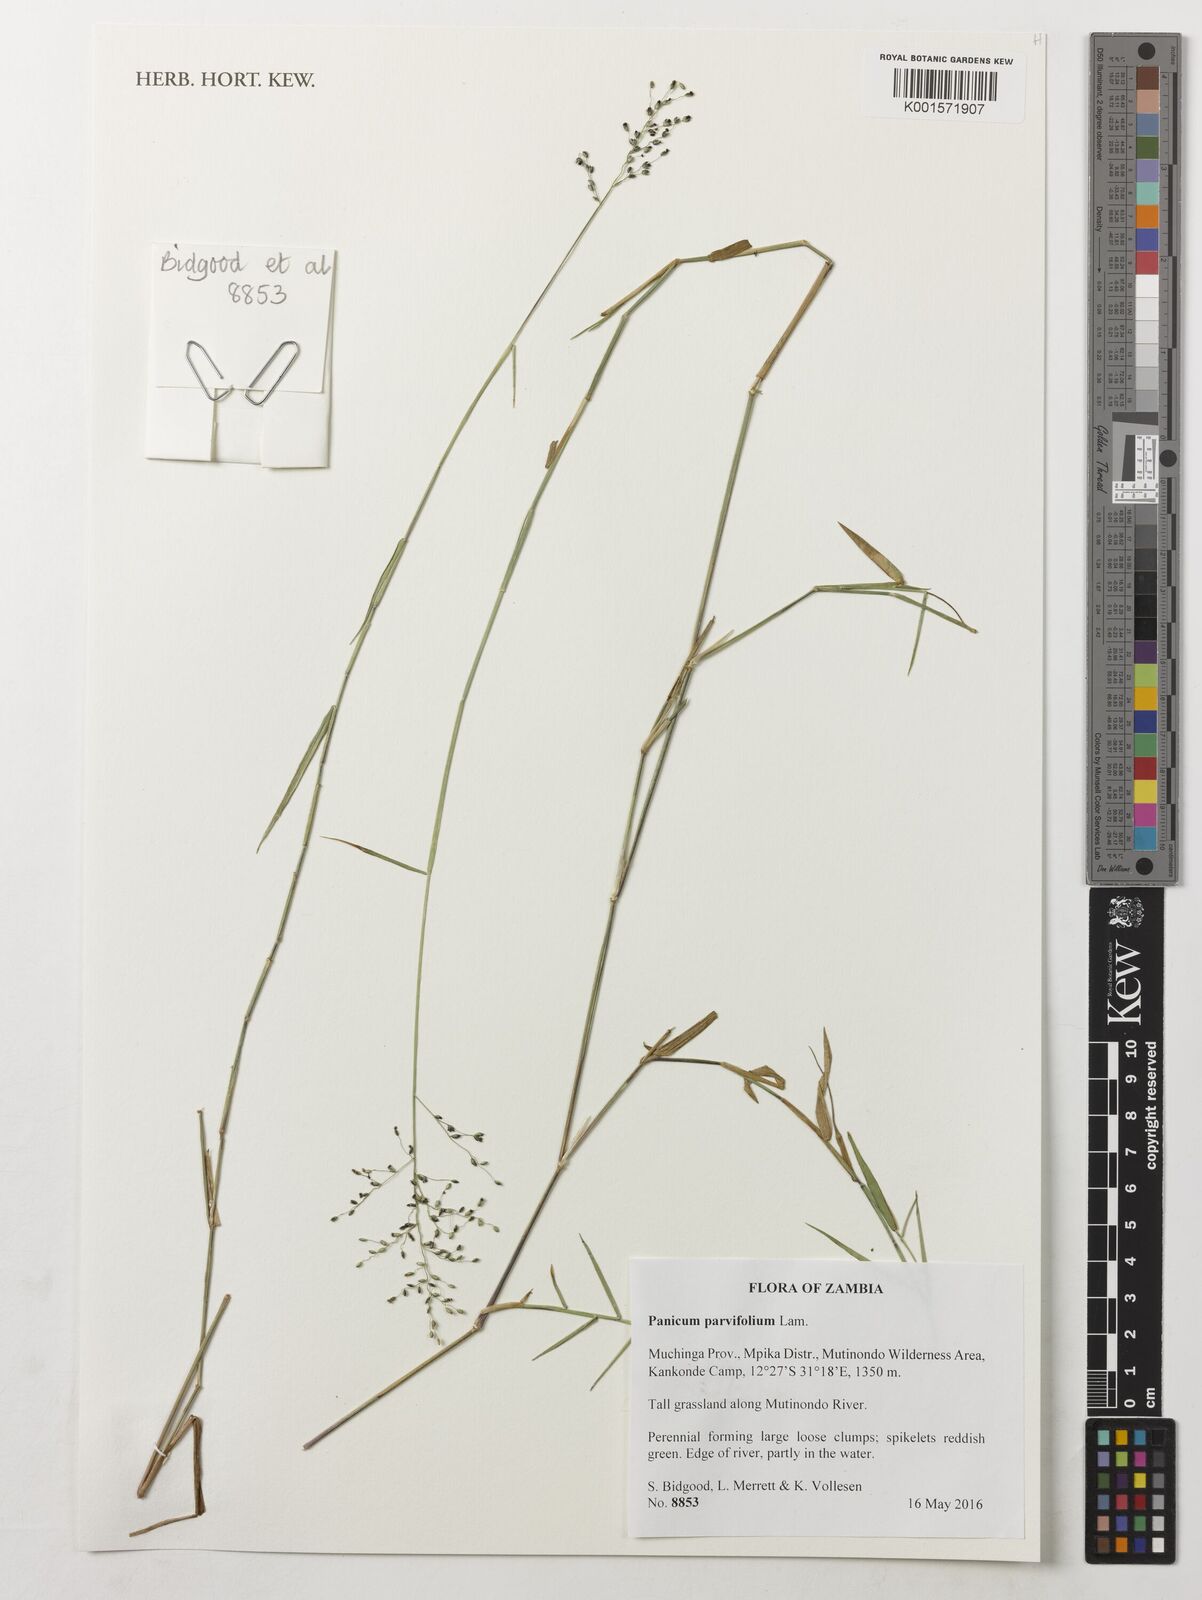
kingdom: Plantae
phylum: Tracheophyta
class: Liliopsida
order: Poales
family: Poaceae
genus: Trichanthecium
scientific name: Trichanthecium parvifolium
